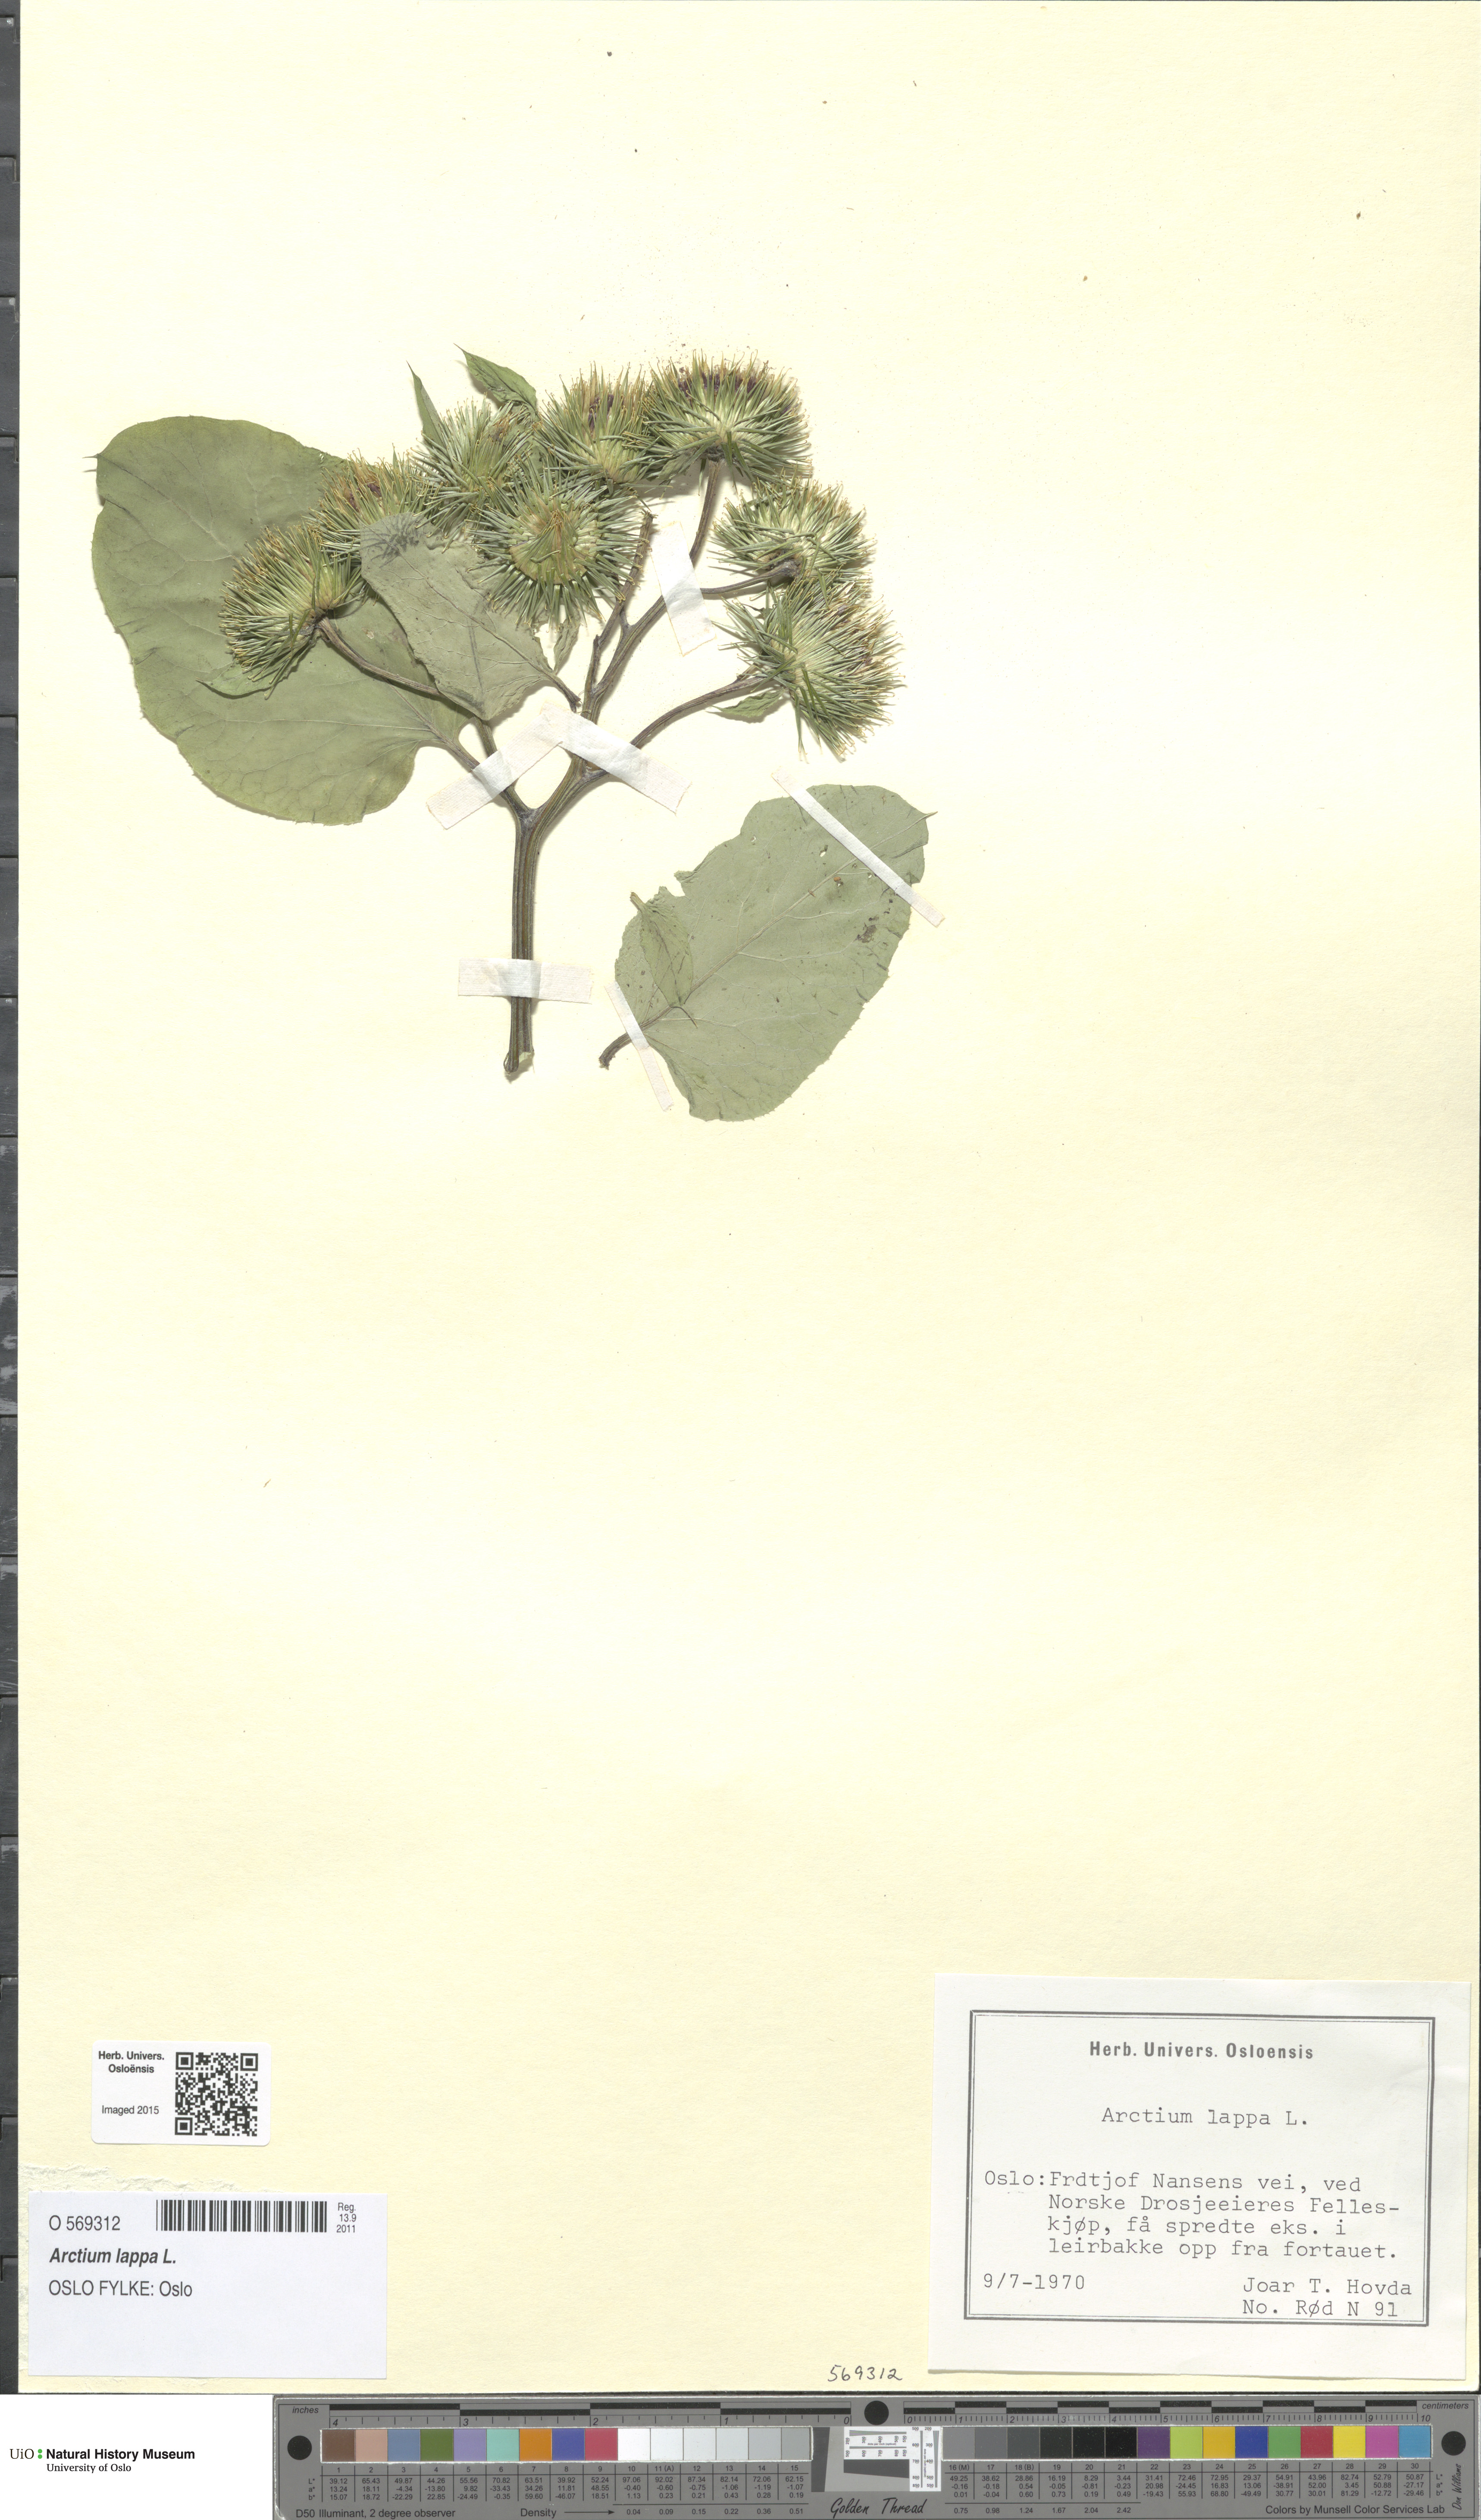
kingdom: Plantae
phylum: Tracheophyta
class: Magnoliopsida
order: Asterales
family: Asteraceae
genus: Arctium
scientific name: Arctium lappa
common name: Greater burdock
